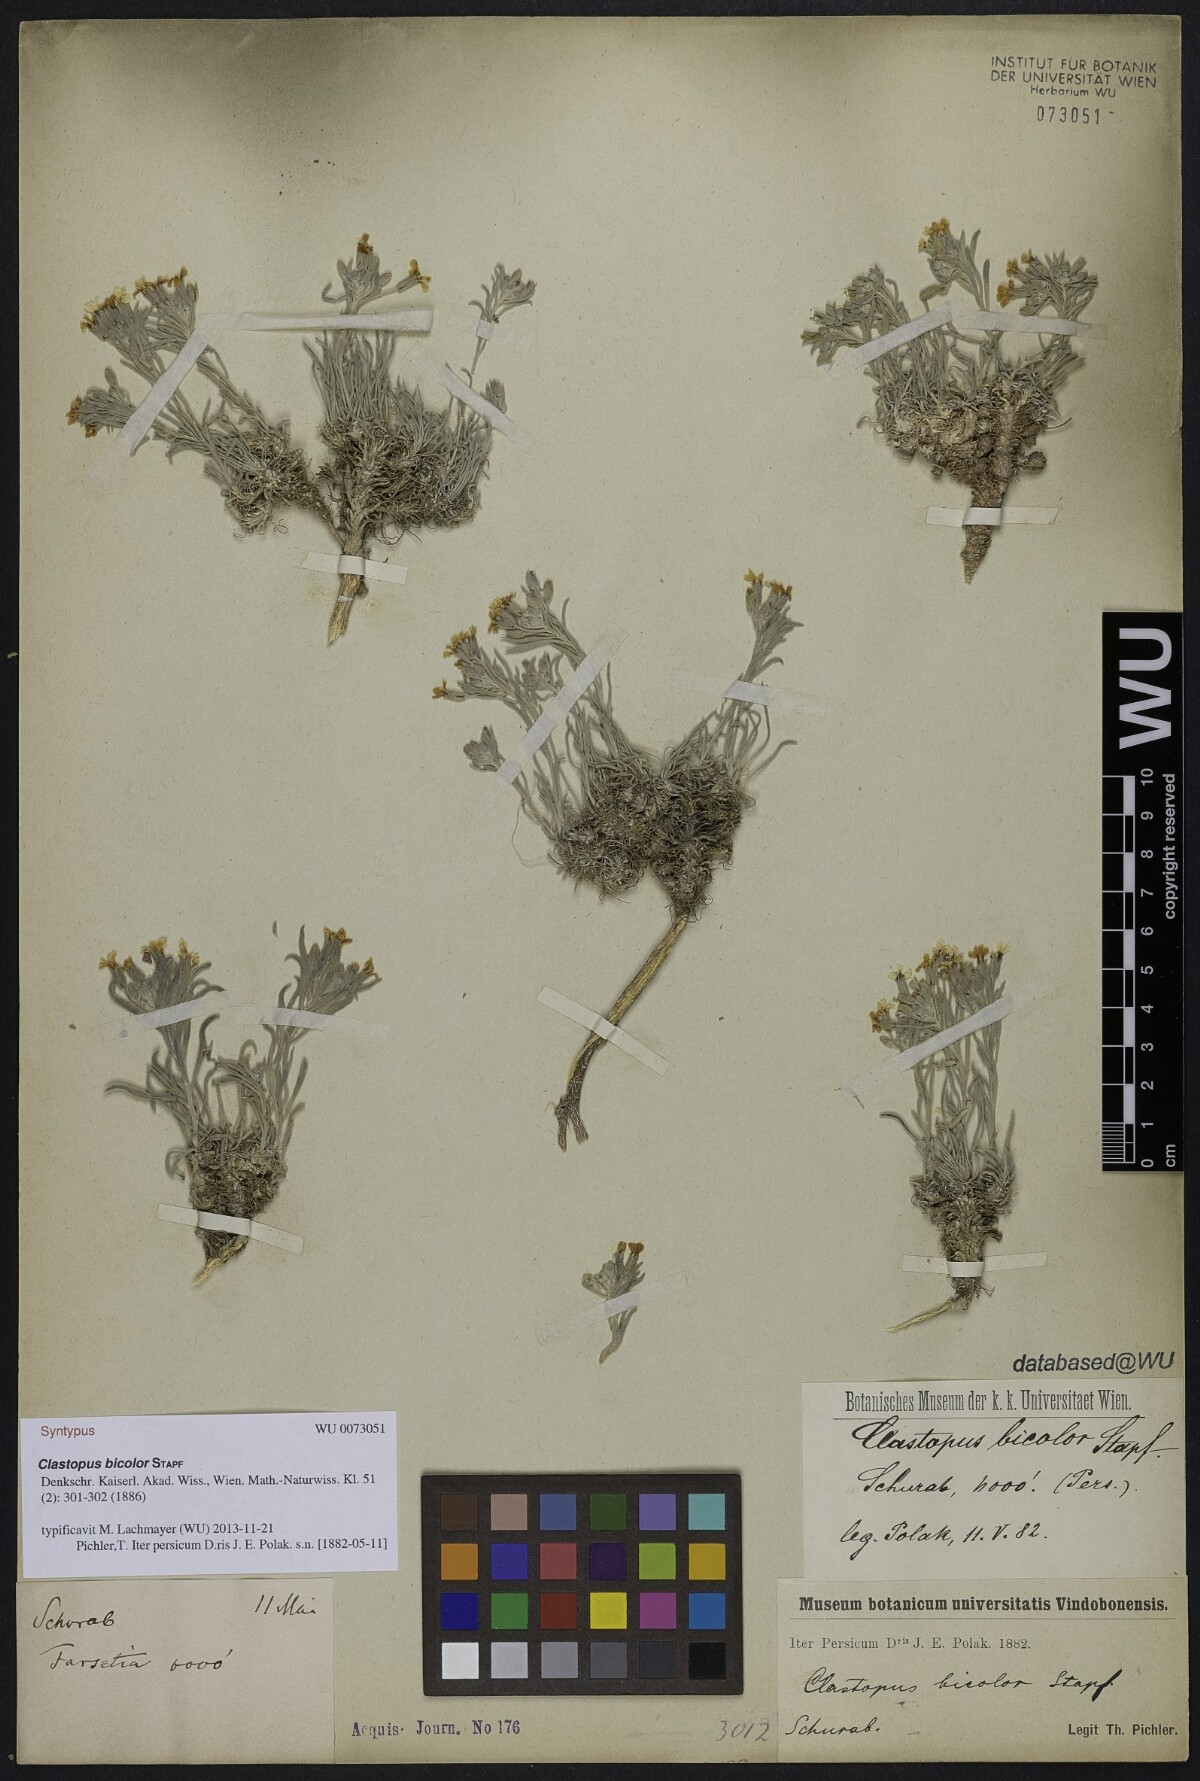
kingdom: Plantae
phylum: Tracheophyta
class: Magnoliopsida
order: Brassicales
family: Brassicaceae
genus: Clastopus
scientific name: Clastopus purpureus
